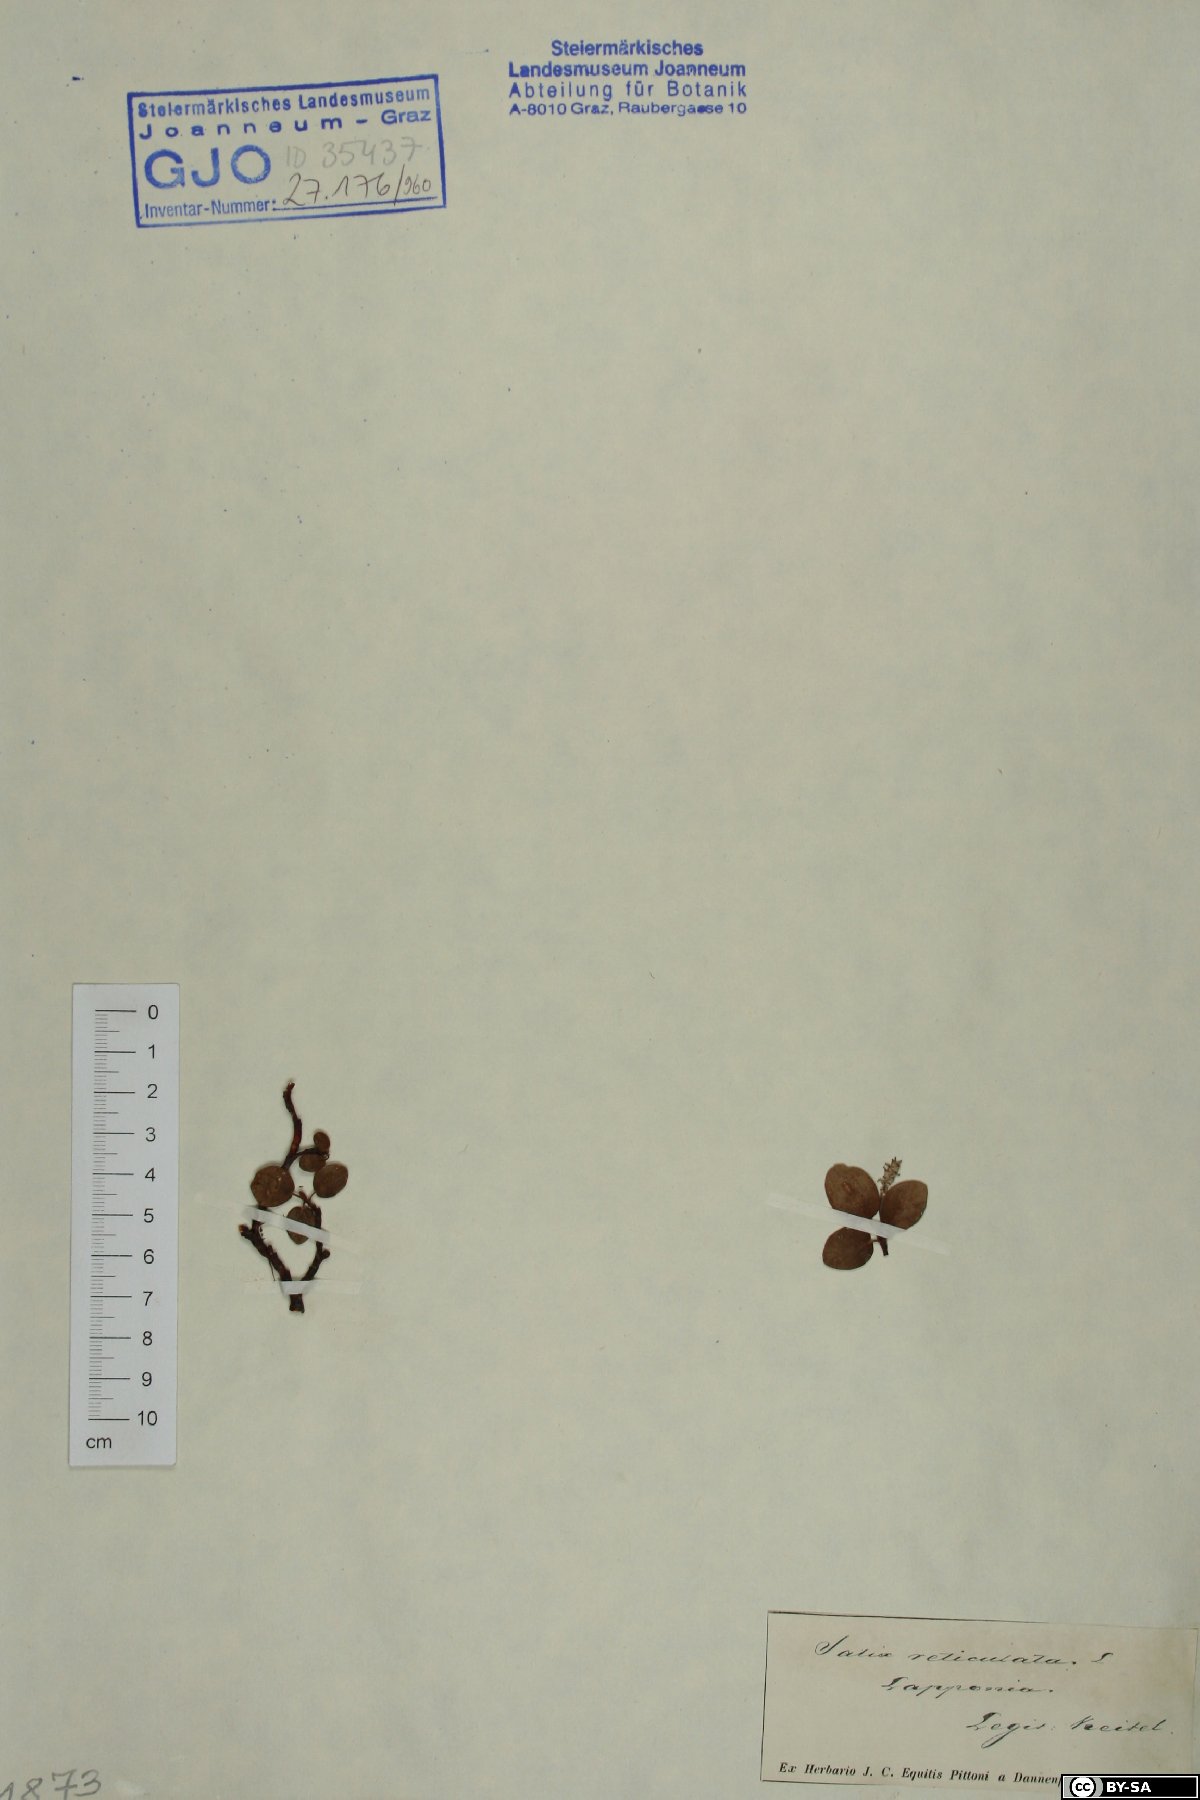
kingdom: Plantae
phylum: Tracheophyta
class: Magnoliopsida
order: Malpighiales
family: Salicaceae
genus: Salix
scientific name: Salix reticulata
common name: Net-leaved willow
